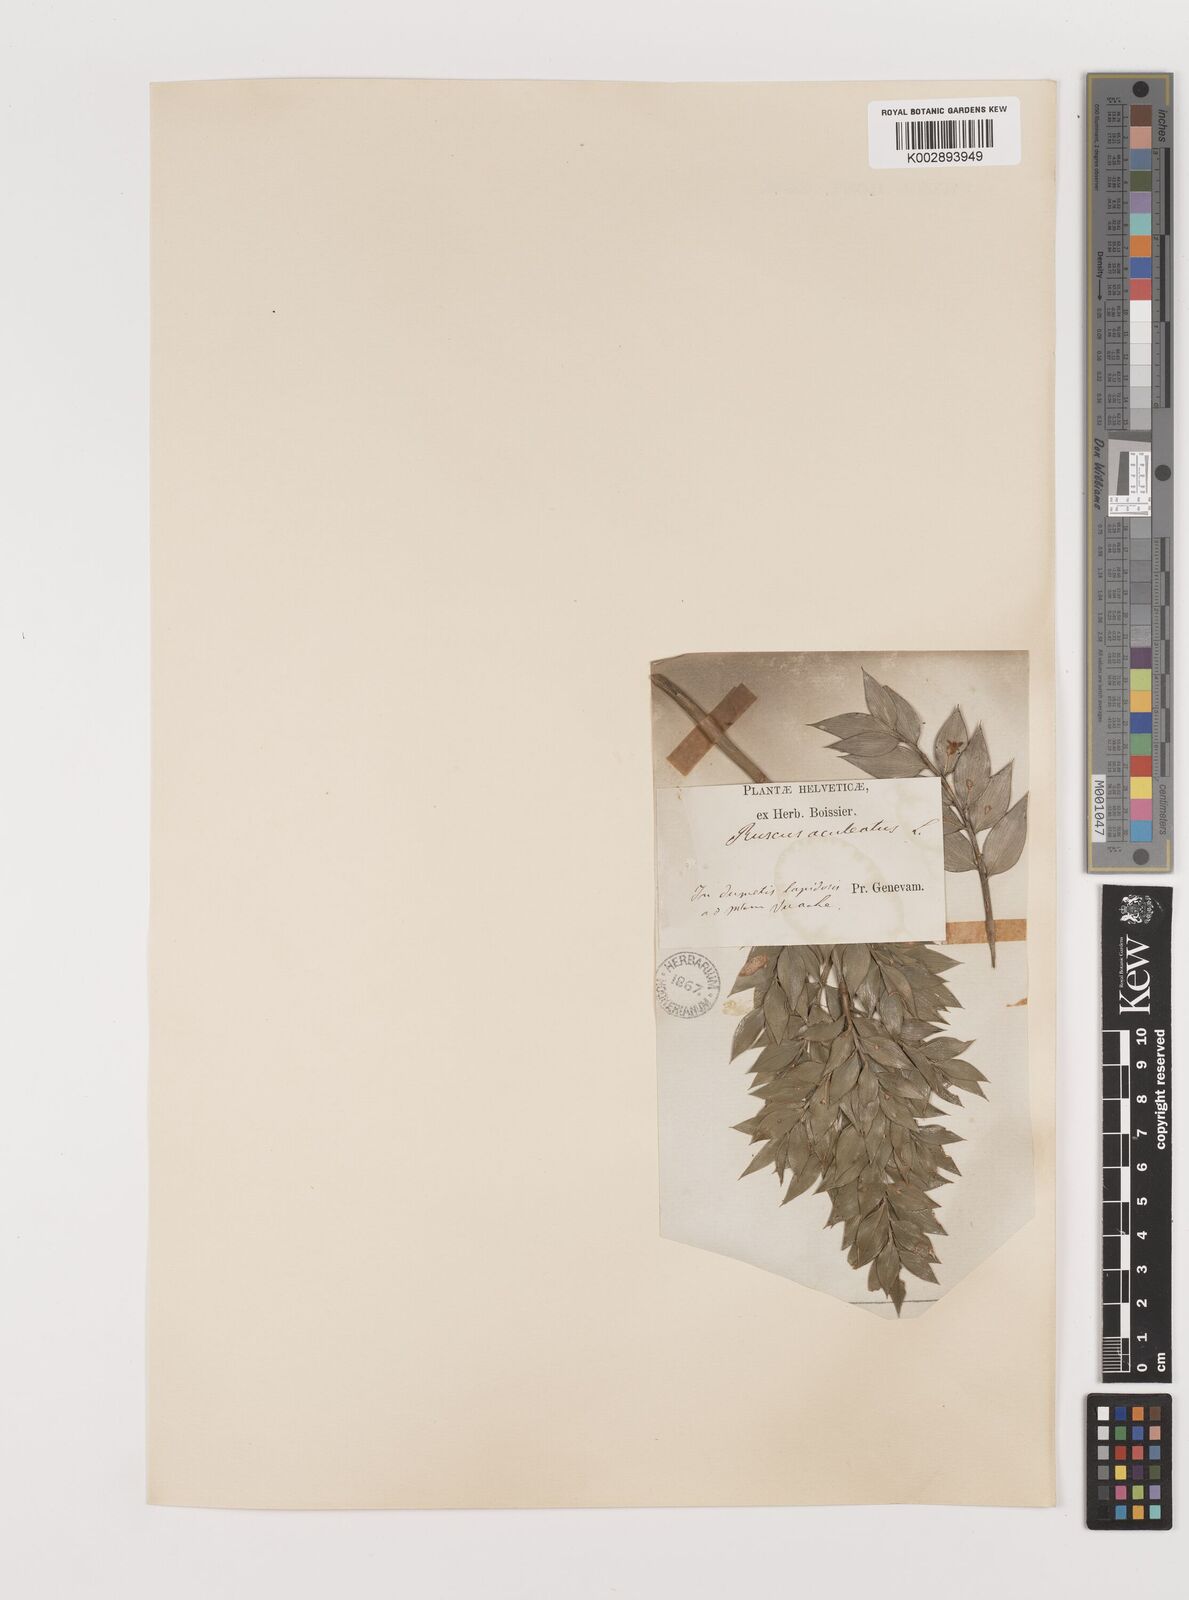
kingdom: Plantae
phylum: Tracheophyta
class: Liliopsida
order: Asparagales
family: Asparagaceae
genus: Ruscus
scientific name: Ruscus aculeatus
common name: Butcher's-broom
